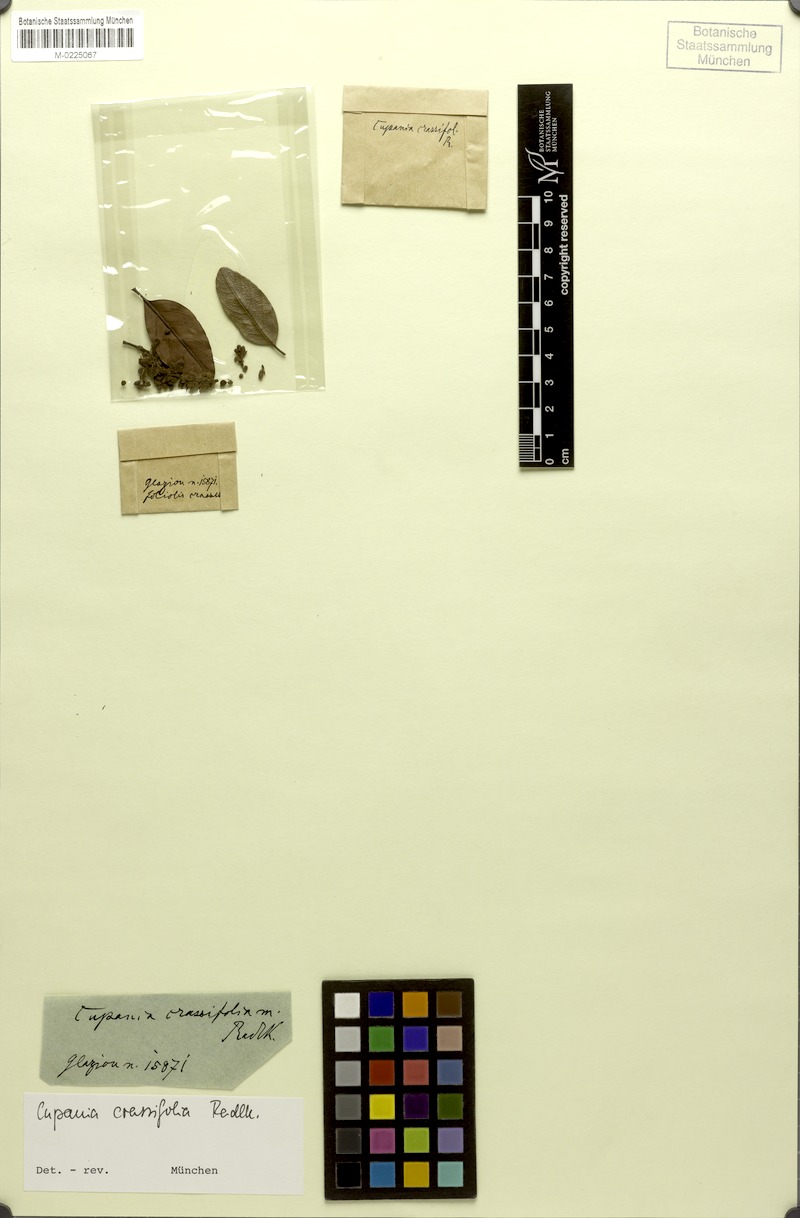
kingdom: Plantae
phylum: Tracheophyta
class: Magnoliopsida
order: Sapindales
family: Sapindaceae
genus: Cupania
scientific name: Cupania crassifolia
